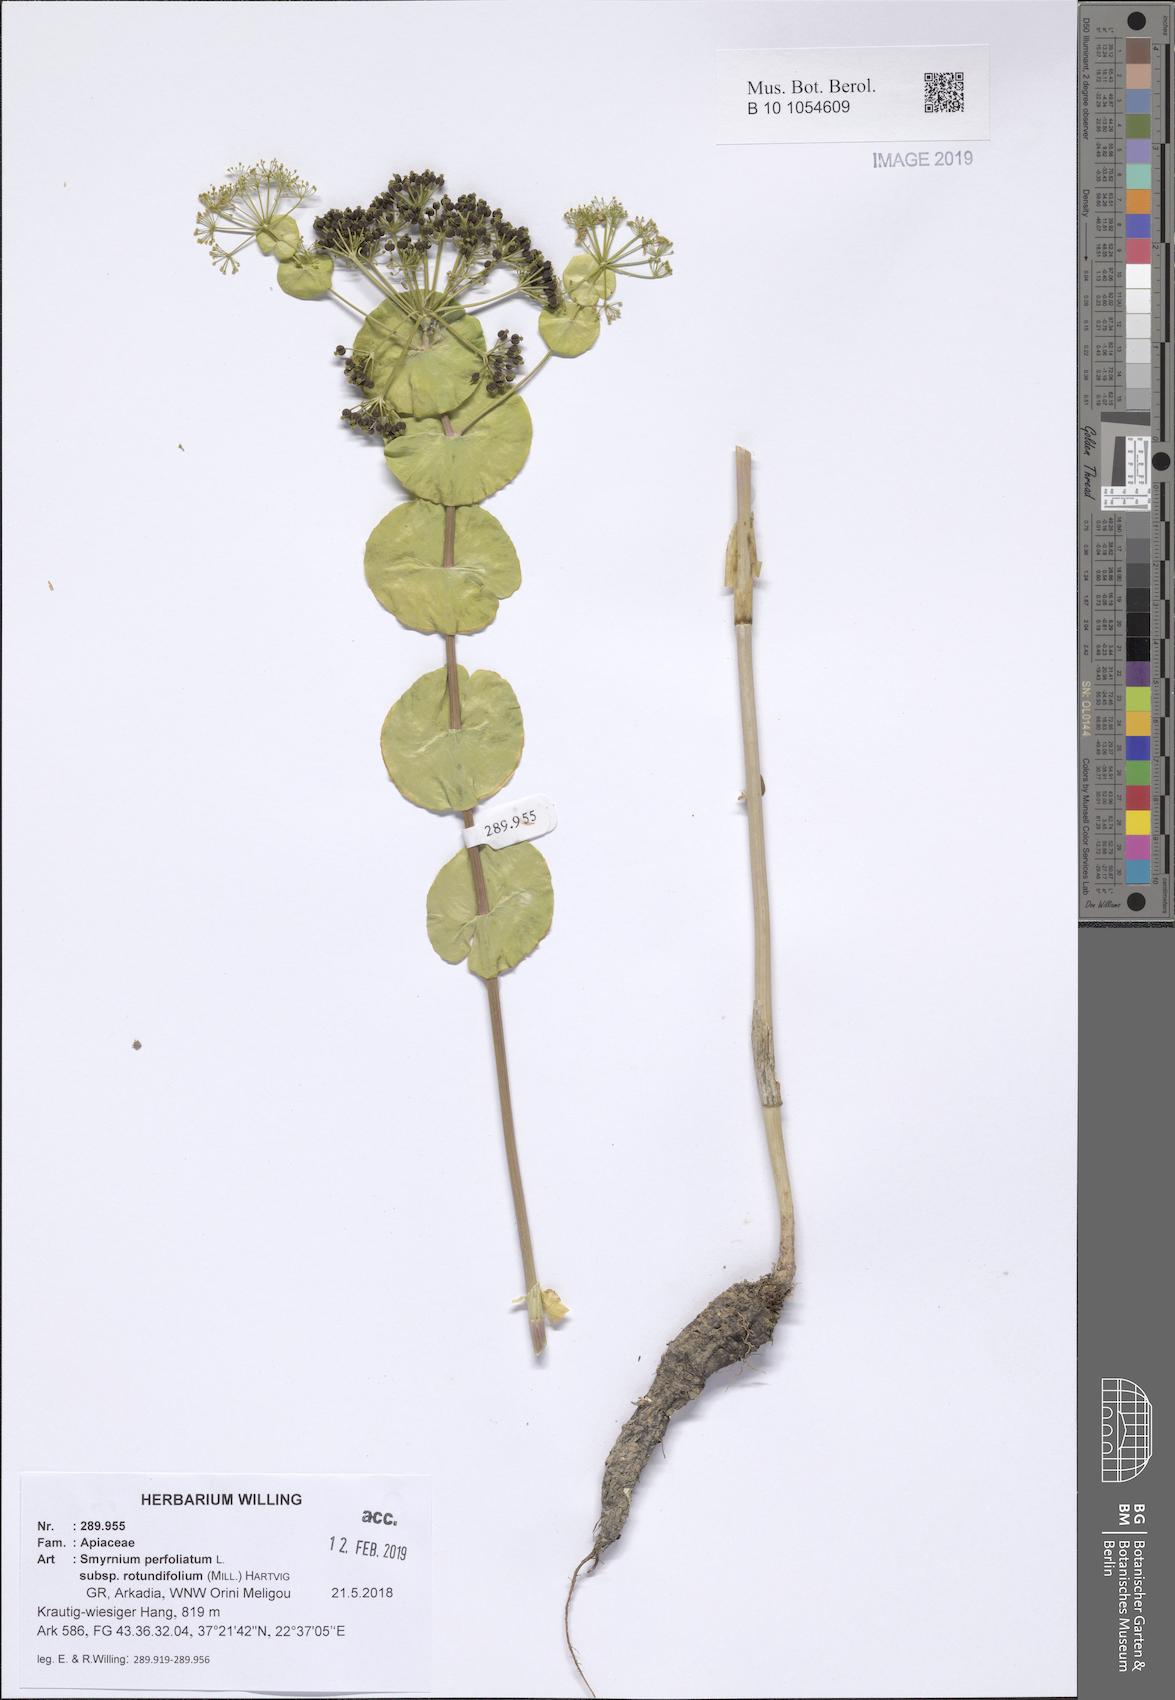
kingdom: Plantae
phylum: Tracheophyta
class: Magnoliopsida
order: Apiales
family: Apiaceae
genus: Smyrnium
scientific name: Smyrnium perfoliatum
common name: Perfoliate alexanders
